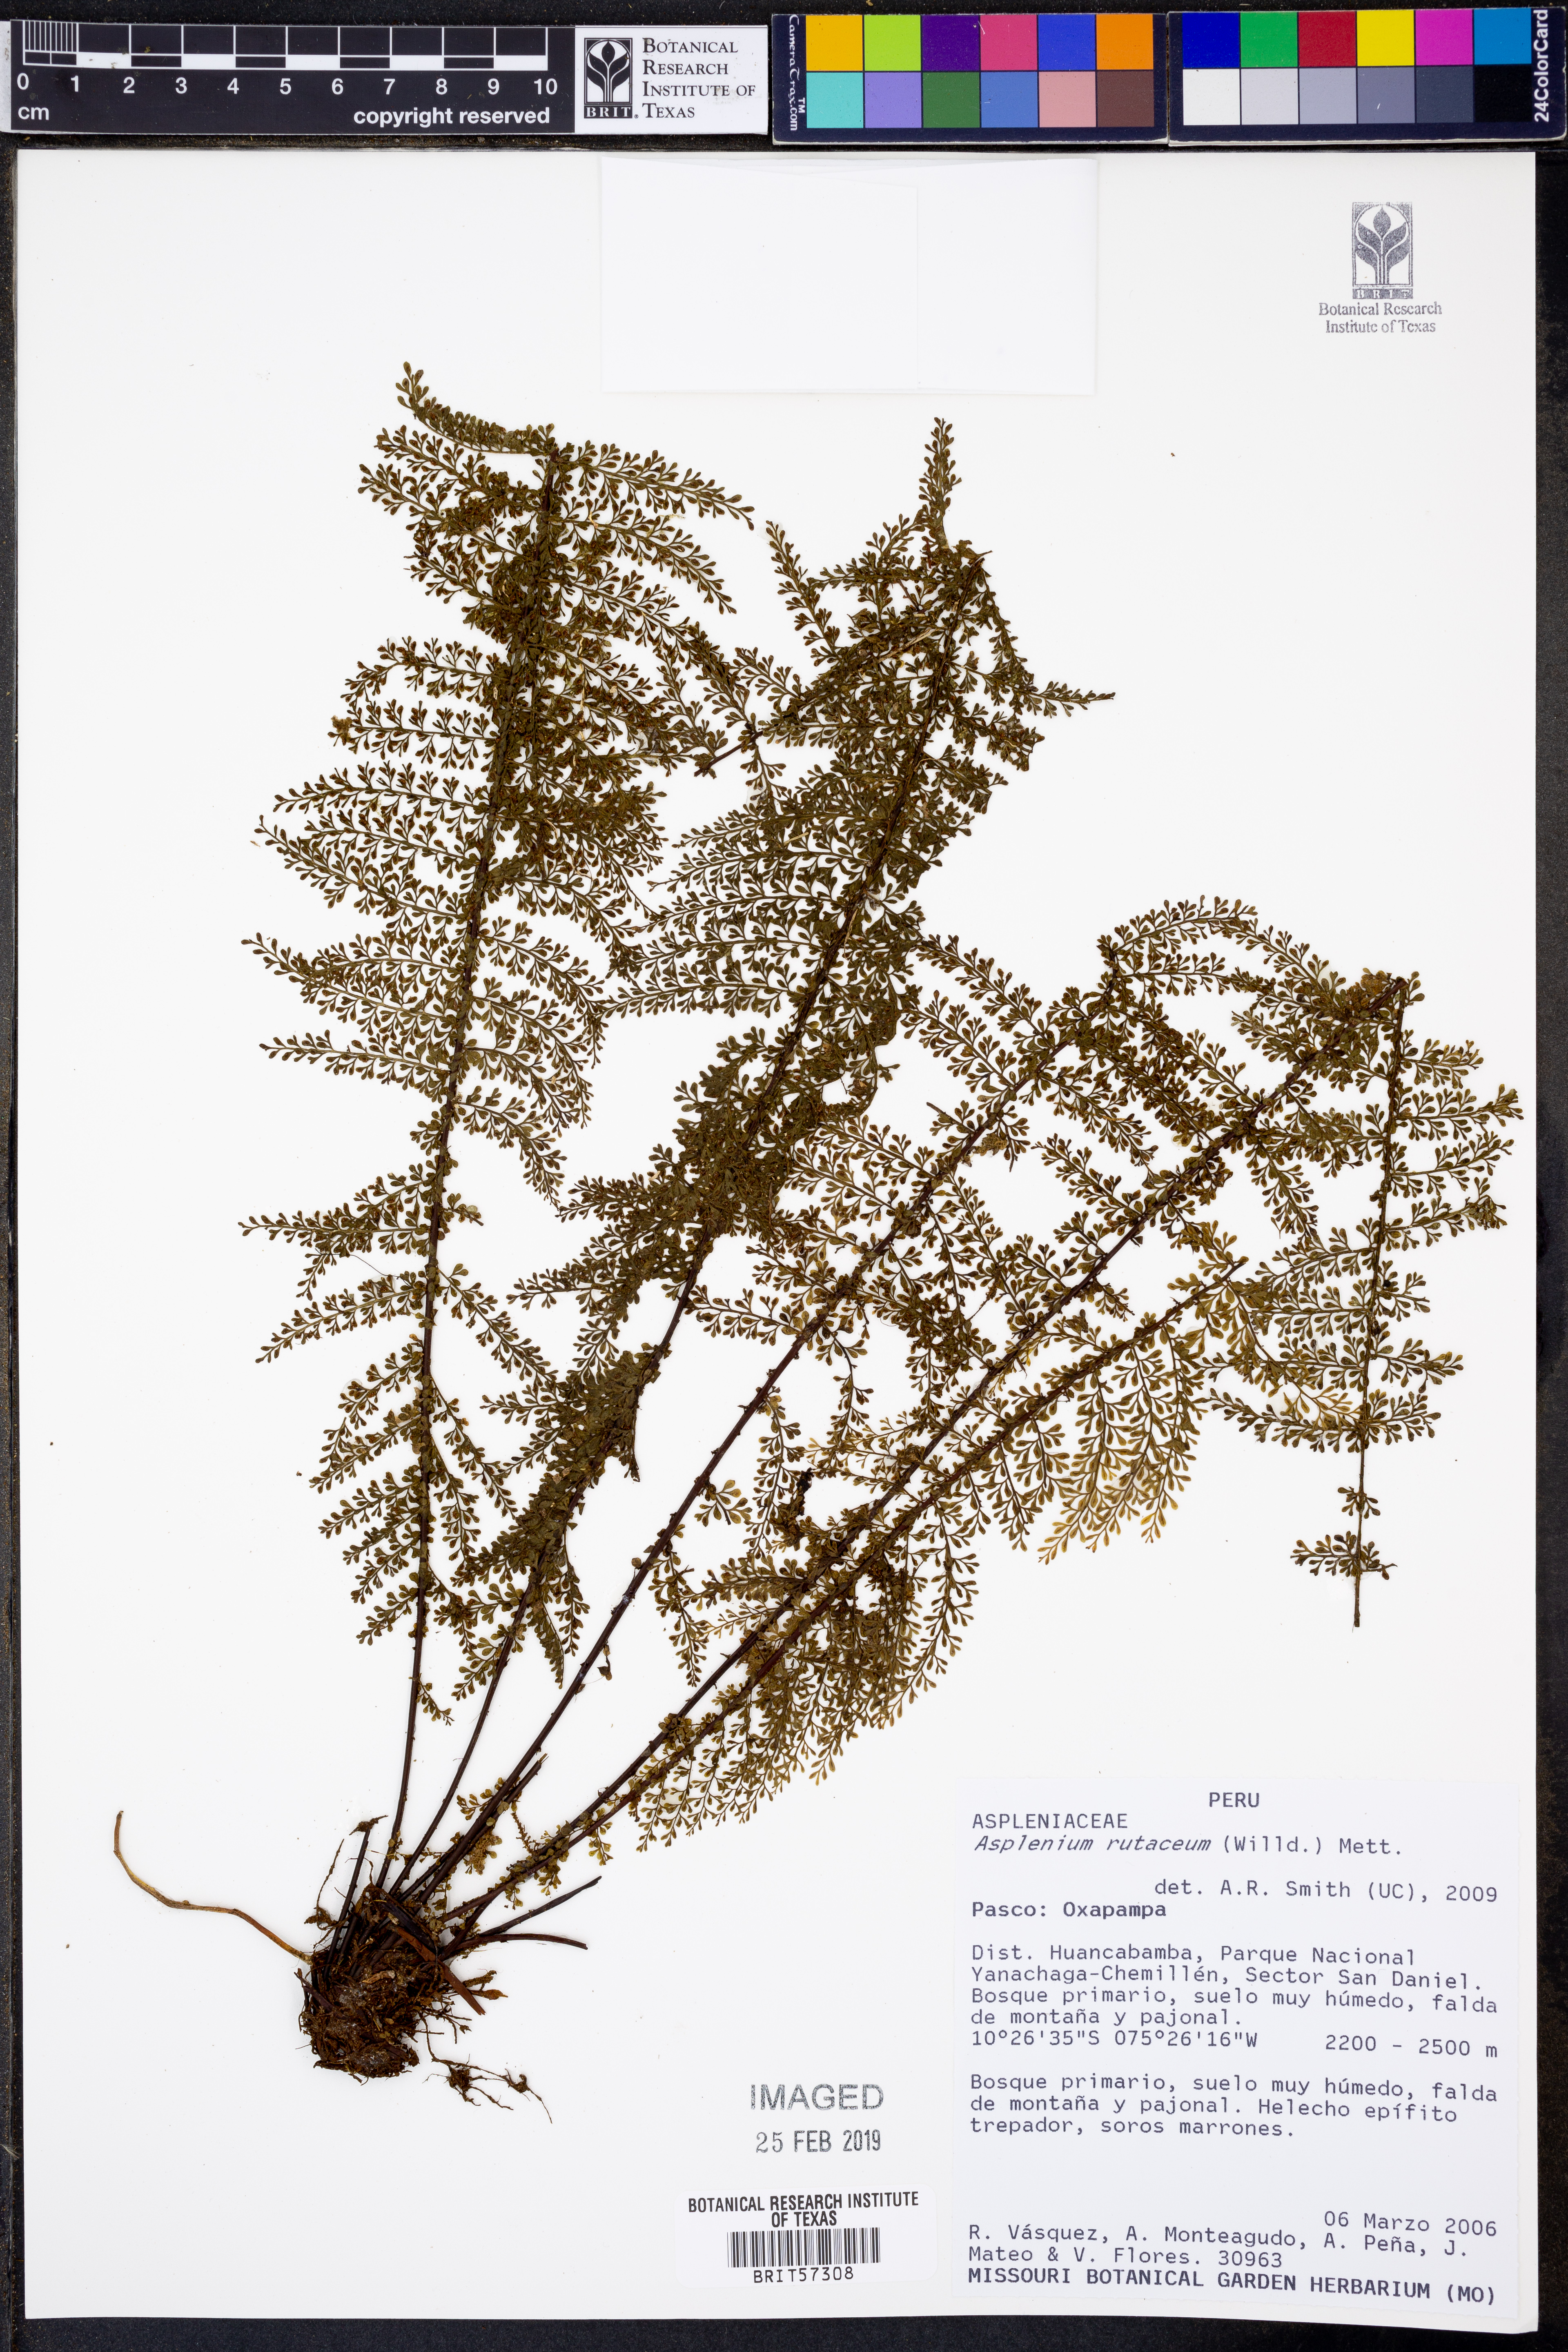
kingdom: Plantae
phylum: Tracheophyta
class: Polypodiopsida
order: Polypodiales
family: Aspleniaceae
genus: Asplenium
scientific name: Asplenium rutaceum
